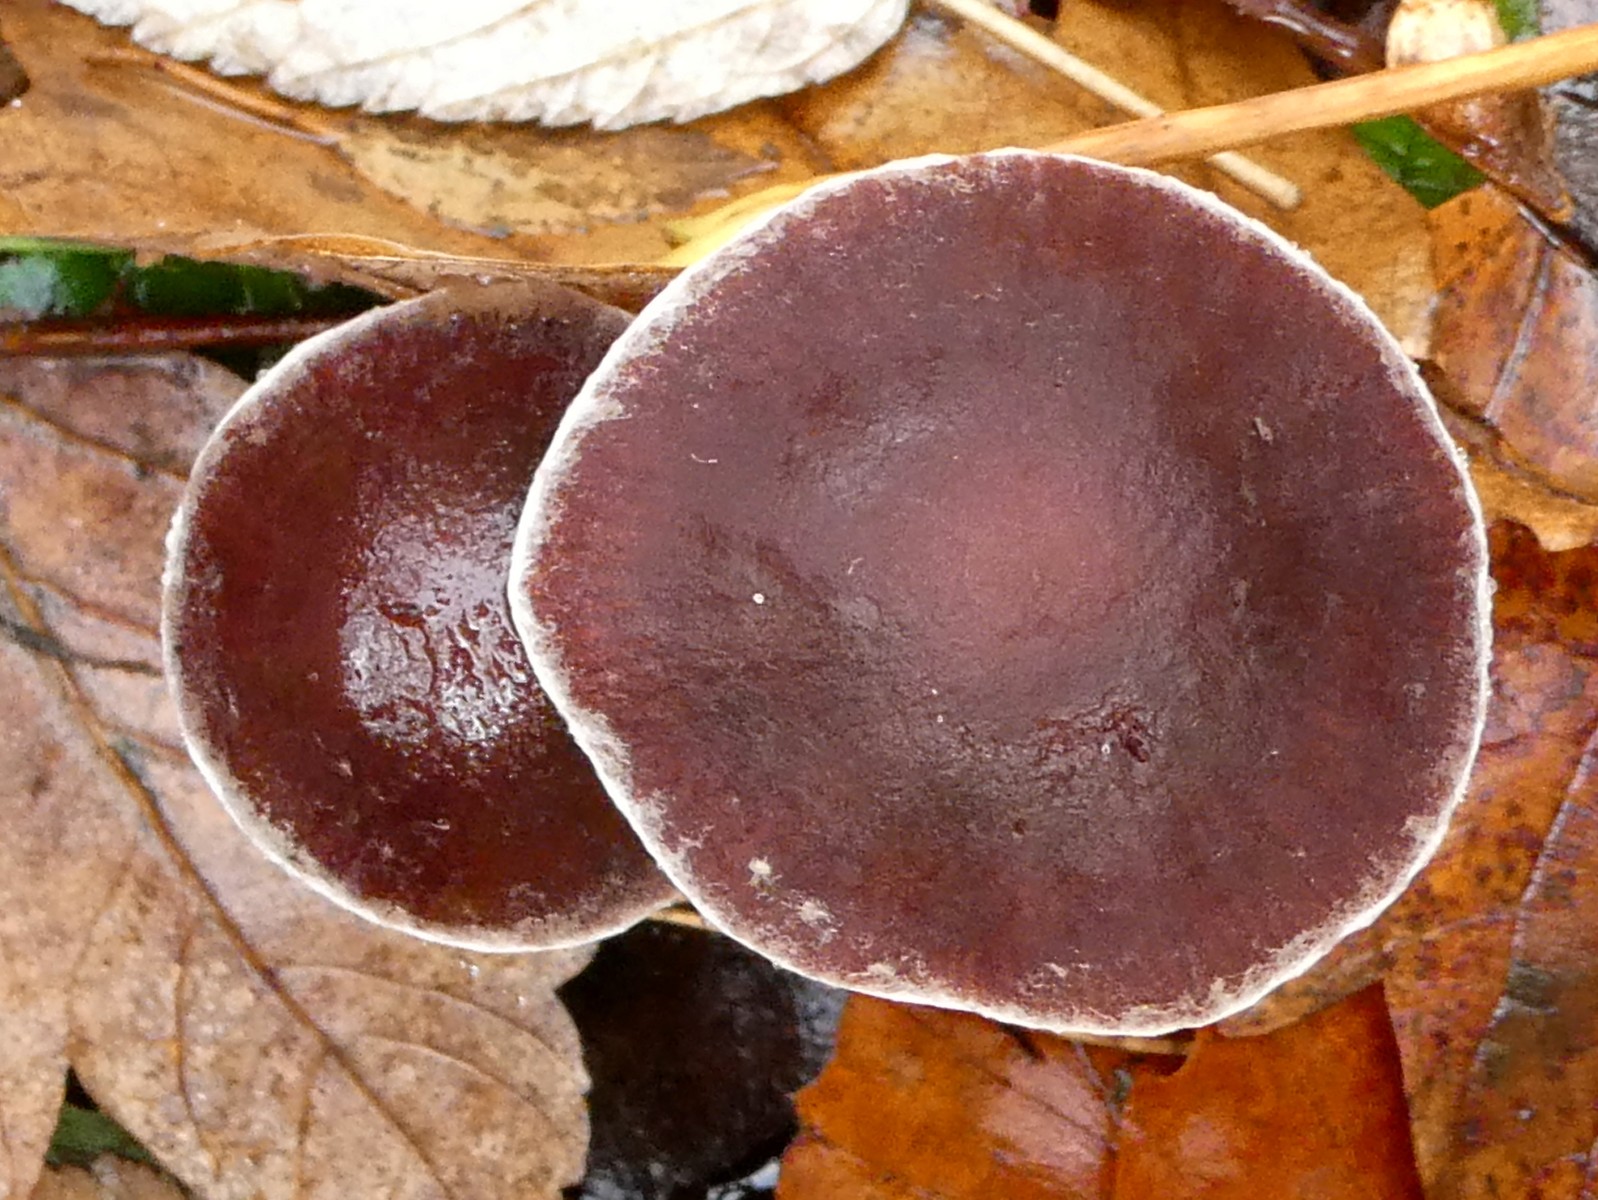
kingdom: Fungi
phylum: Basidiomycota
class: Agaricomycetes
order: Agaricales
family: Psathyrellaceae
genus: Psathyrella
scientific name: Psathyrella bipellis
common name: vinrød mørkhat
